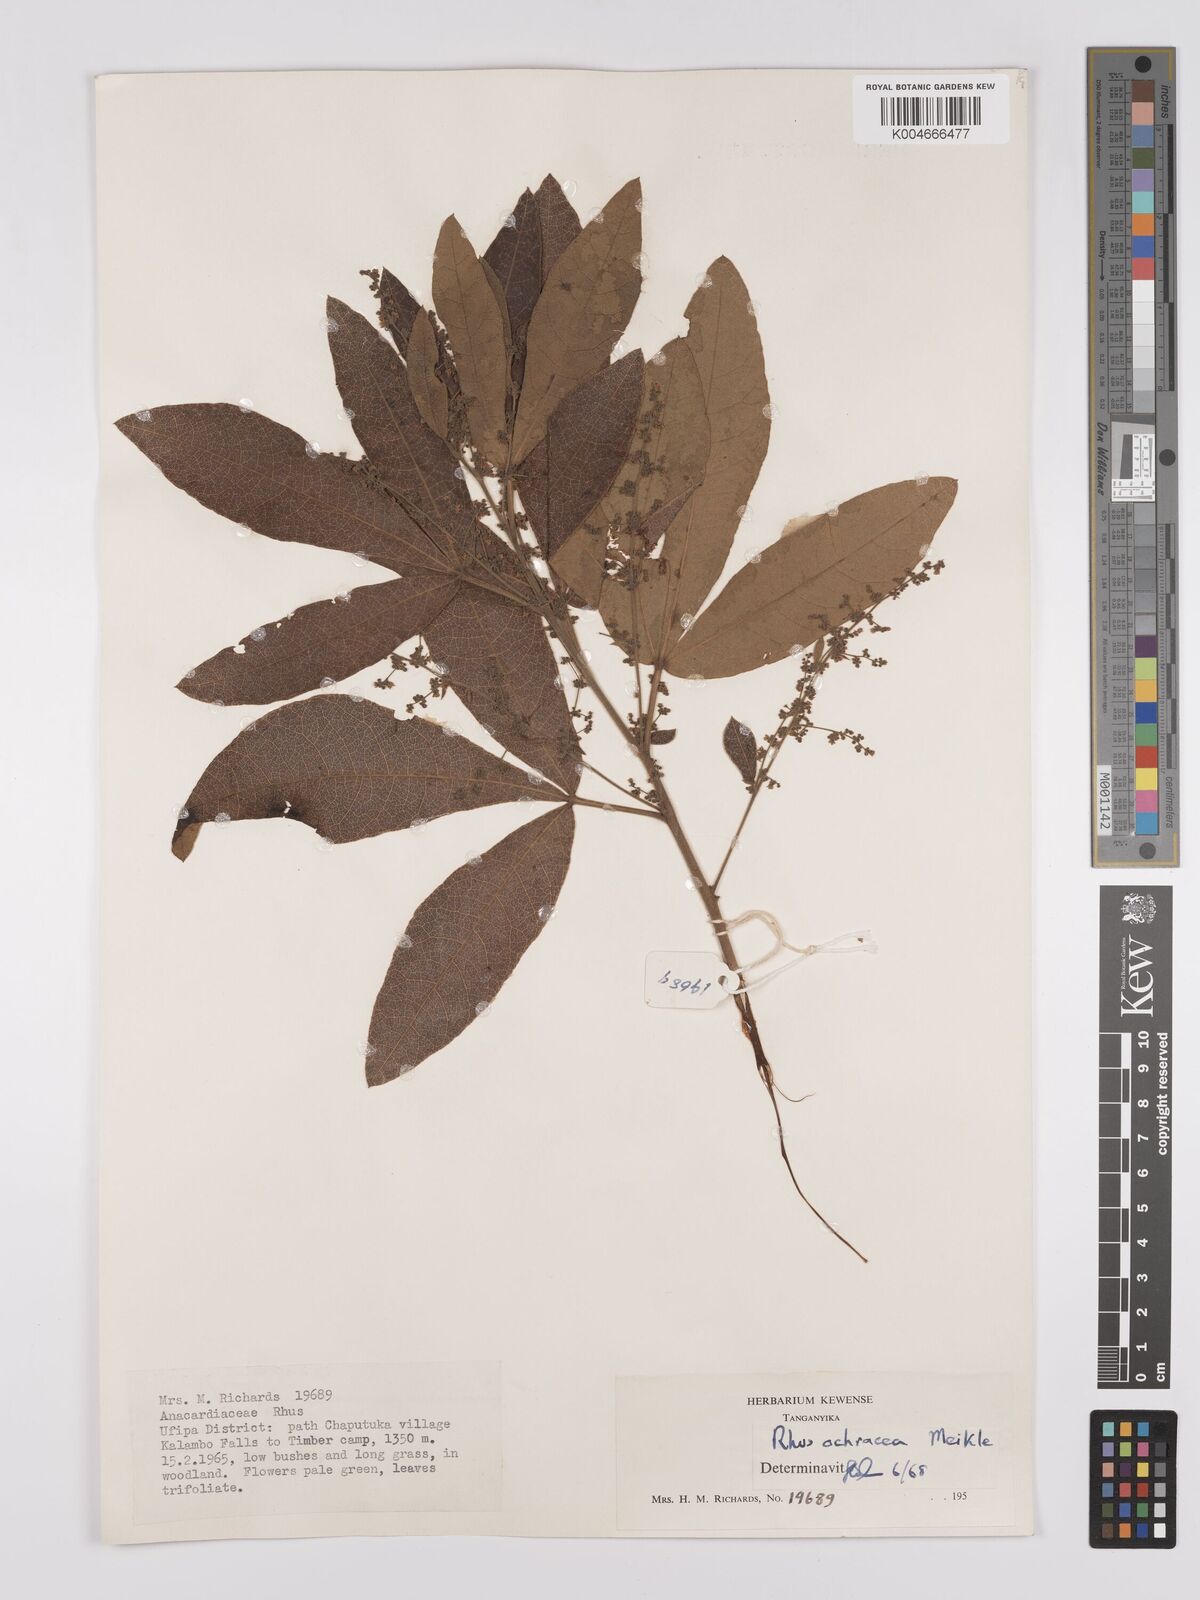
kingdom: Plantae
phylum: Tracheophyta
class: Magnoliopsida
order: Sapindales
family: Anacardiaceae
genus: Searsia
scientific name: Searsia ochracea
